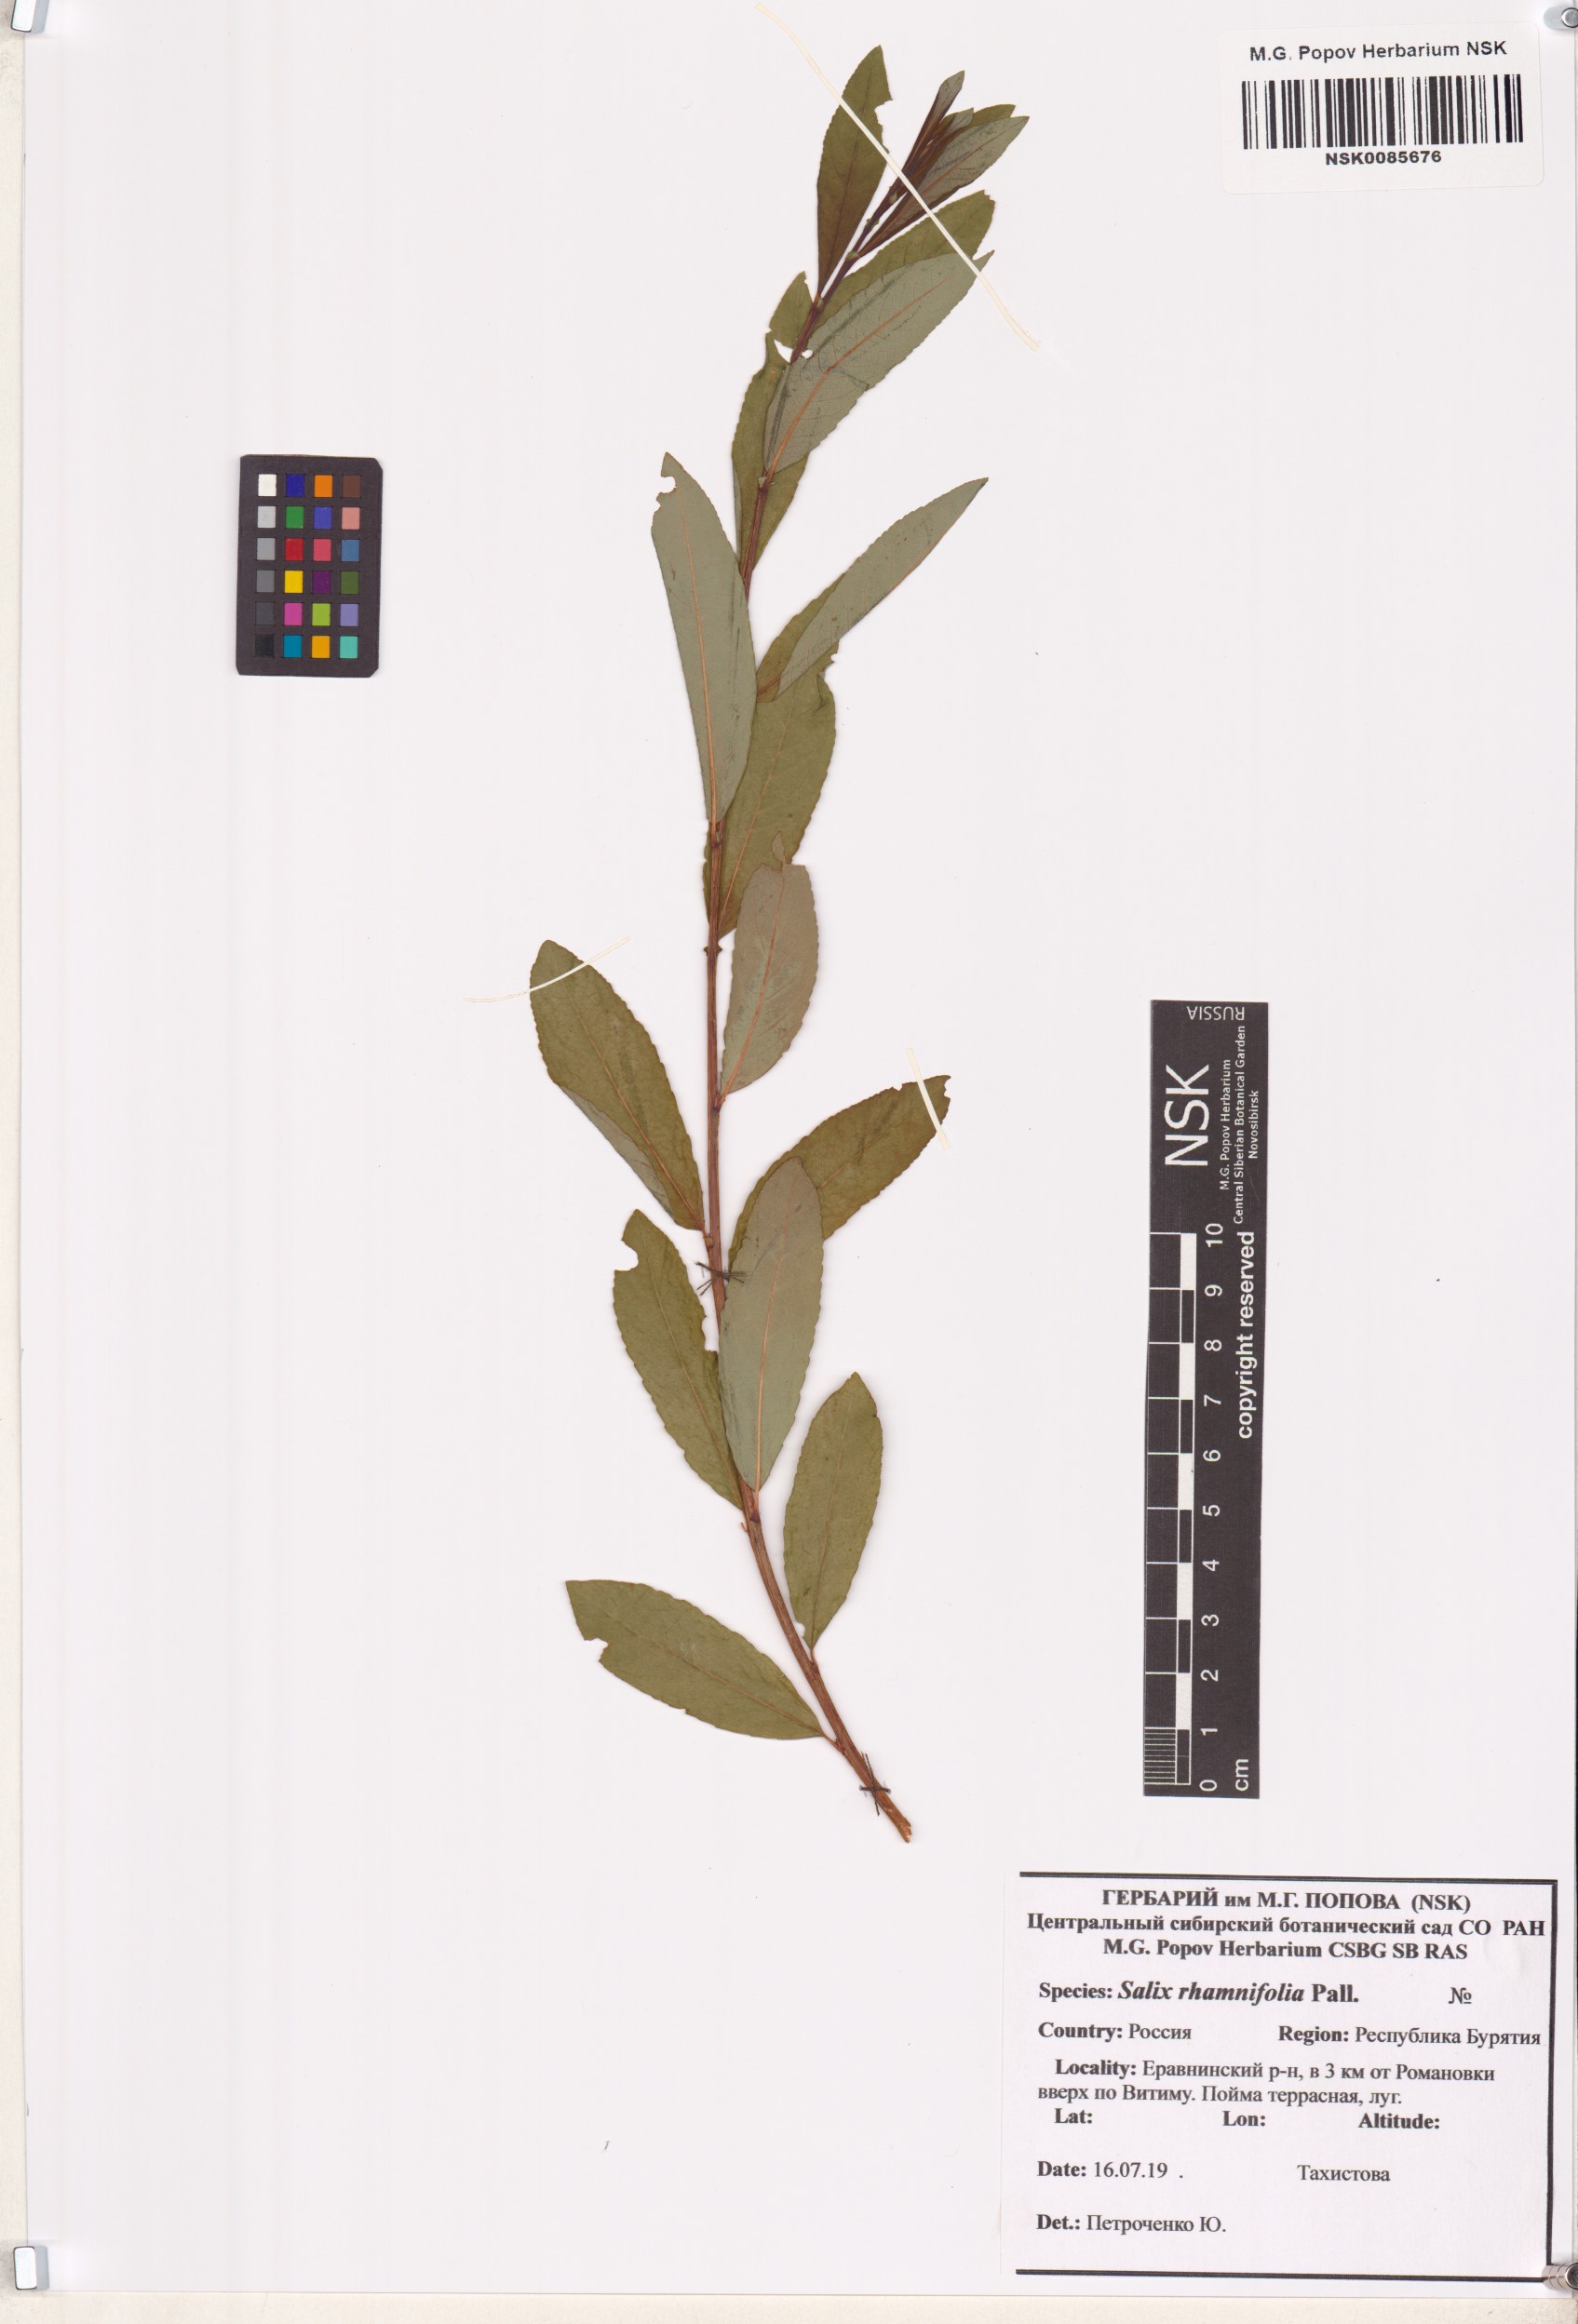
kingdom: Plantae
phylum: Tracheophyta
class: Magnoliopsida
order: Malpighiales
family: Salicaceae
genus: Salix
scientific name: Salix rhamnifolia
